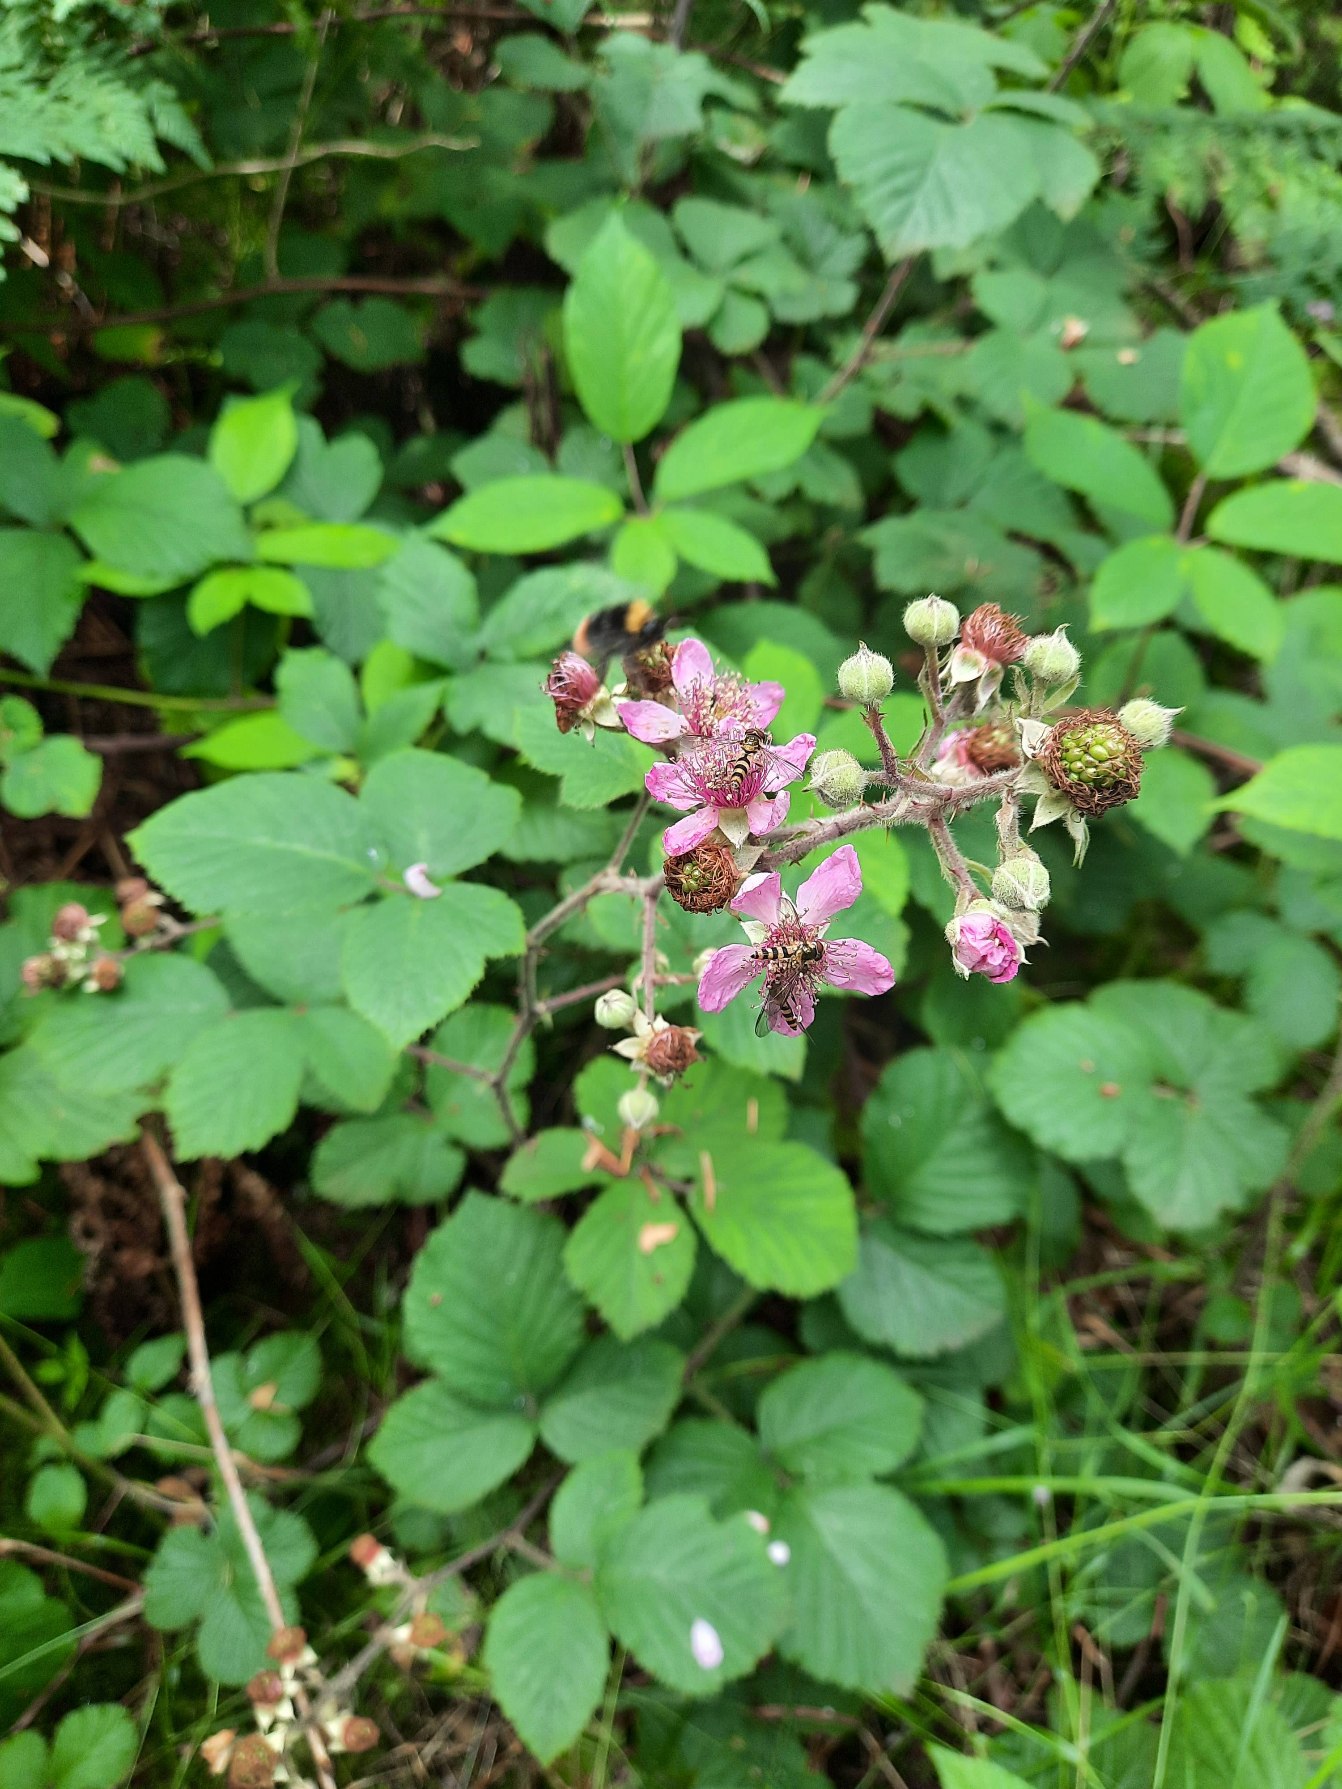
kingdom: Plantae
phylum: Tracheophyta
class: Magnoliopsida
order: Rosales
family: Rosaceae
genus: Rubus
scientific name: Rubus vestitus
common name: Rundbladet brombær
